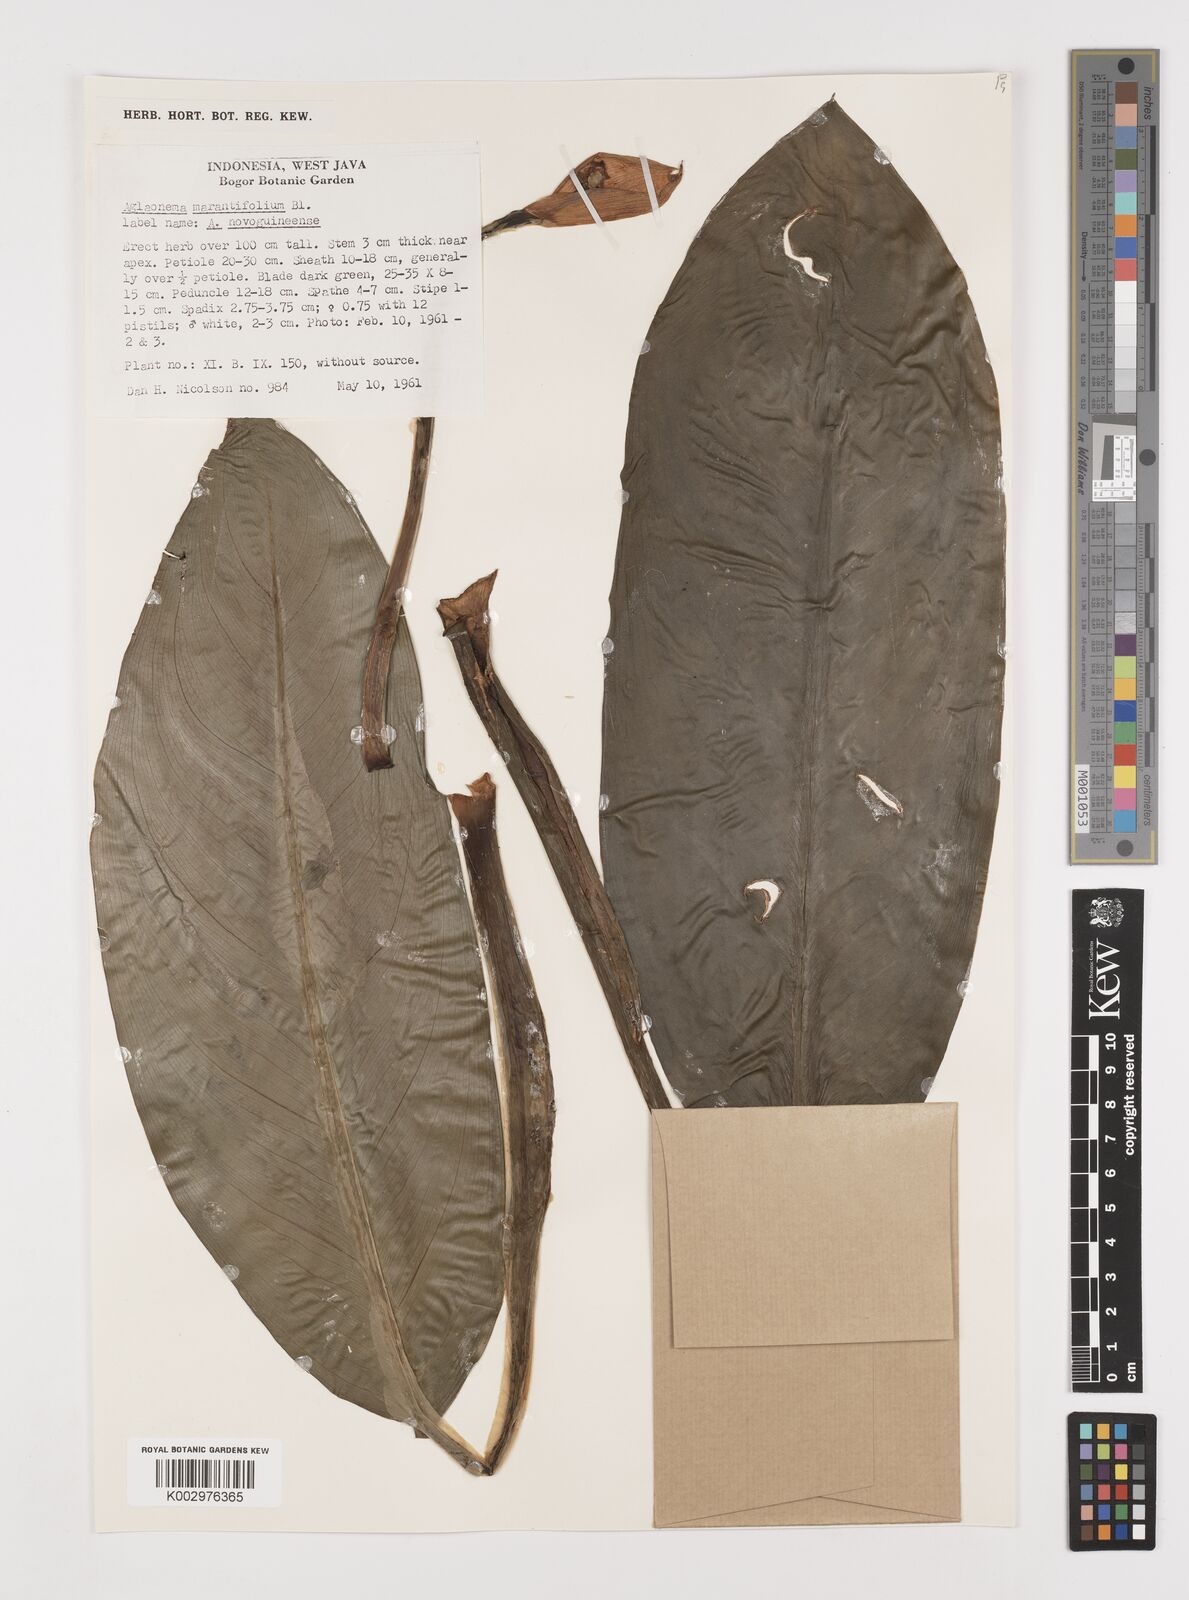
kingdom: Plantae
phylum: Tracheophyta
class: Liliopsida
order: Alismatales
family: Araceae
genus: Aglaonema
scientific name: Aglaonema marantifolium
